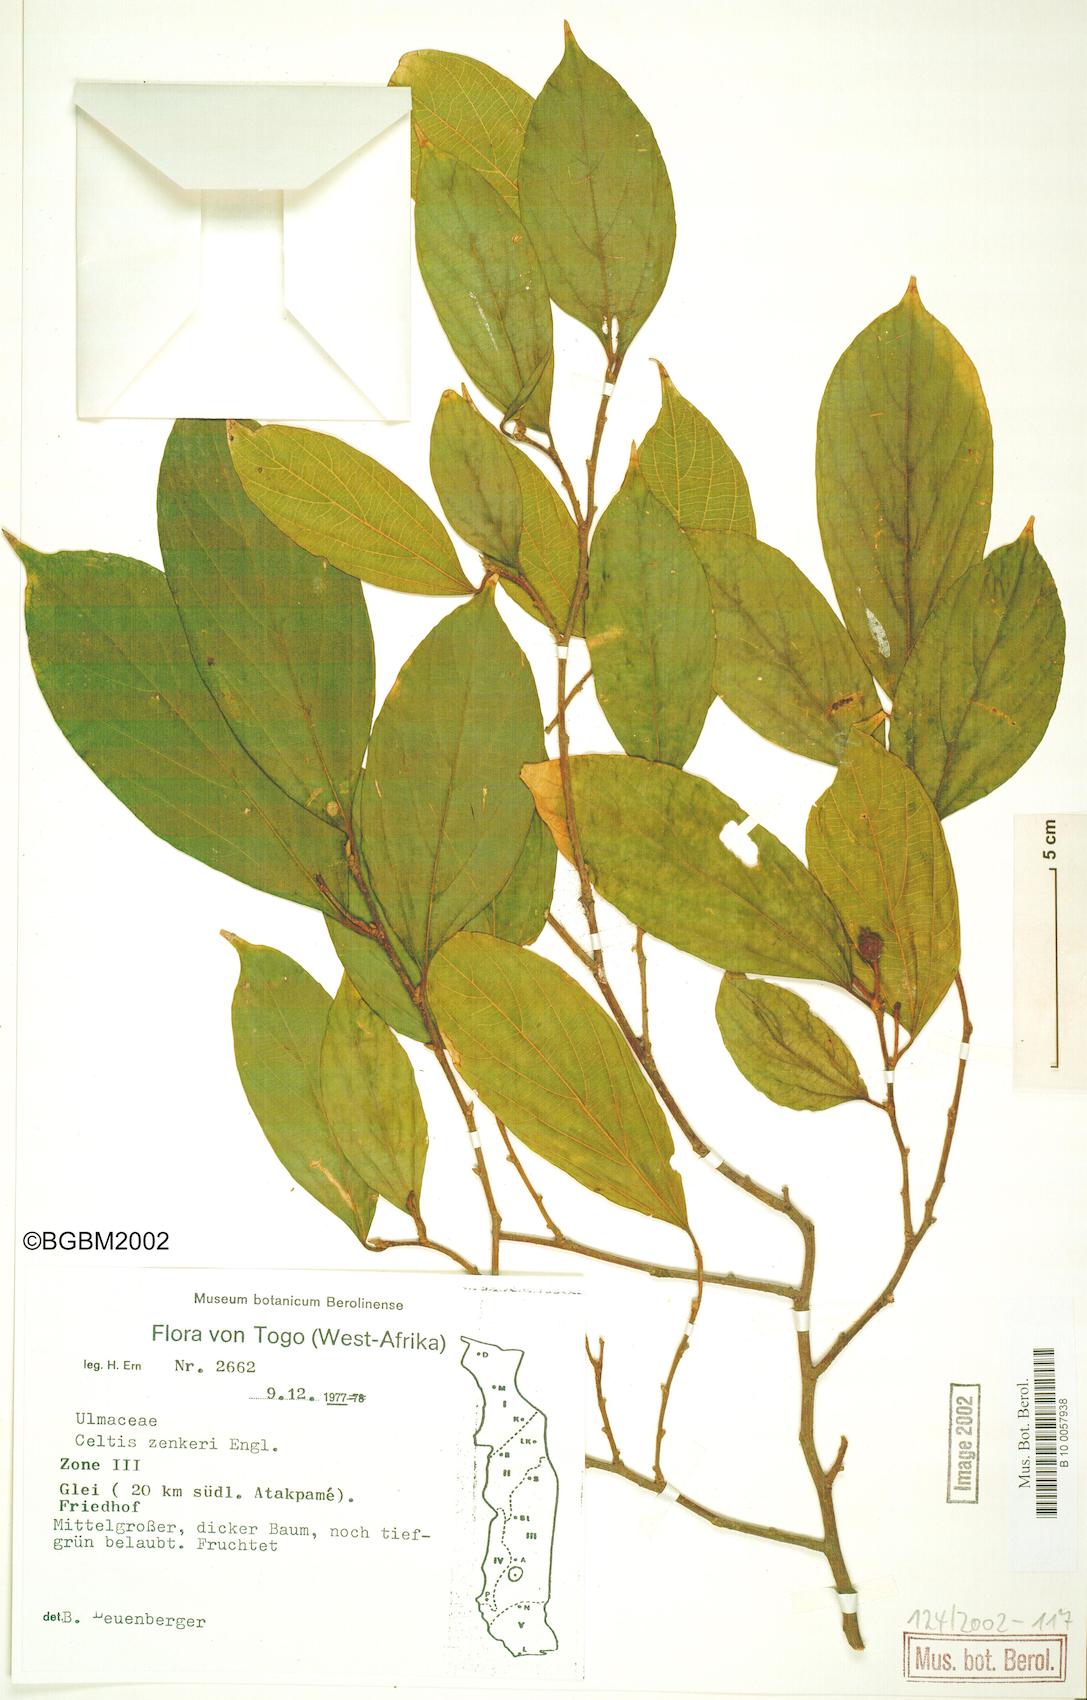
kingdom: Plantae
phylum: Tracheophyta
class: Magnoliopsida
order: Rosales
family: Cannabaceae
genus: Celtis
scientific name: Celtis zenkeri
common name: African celtis
